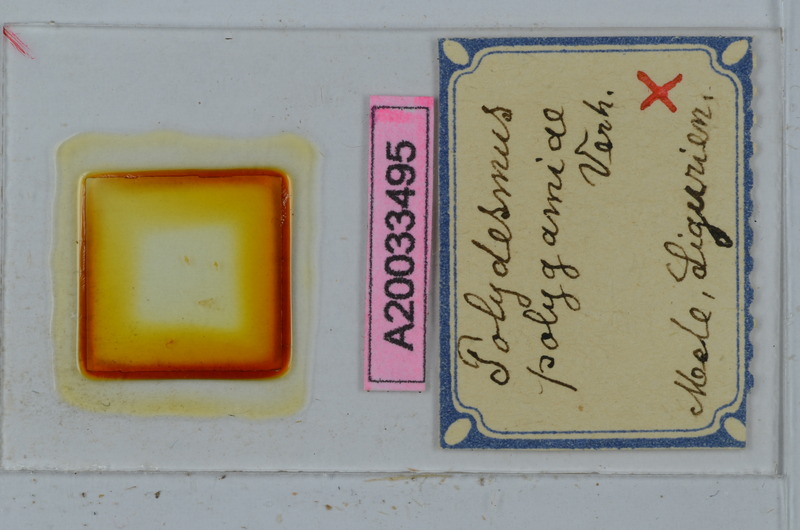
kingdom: Animalia
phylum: Arthropoda
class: Diplopoda
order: Polydesmida
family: Polydesmidae
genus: Polydesmus
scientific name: Polydesmus polygamiae
